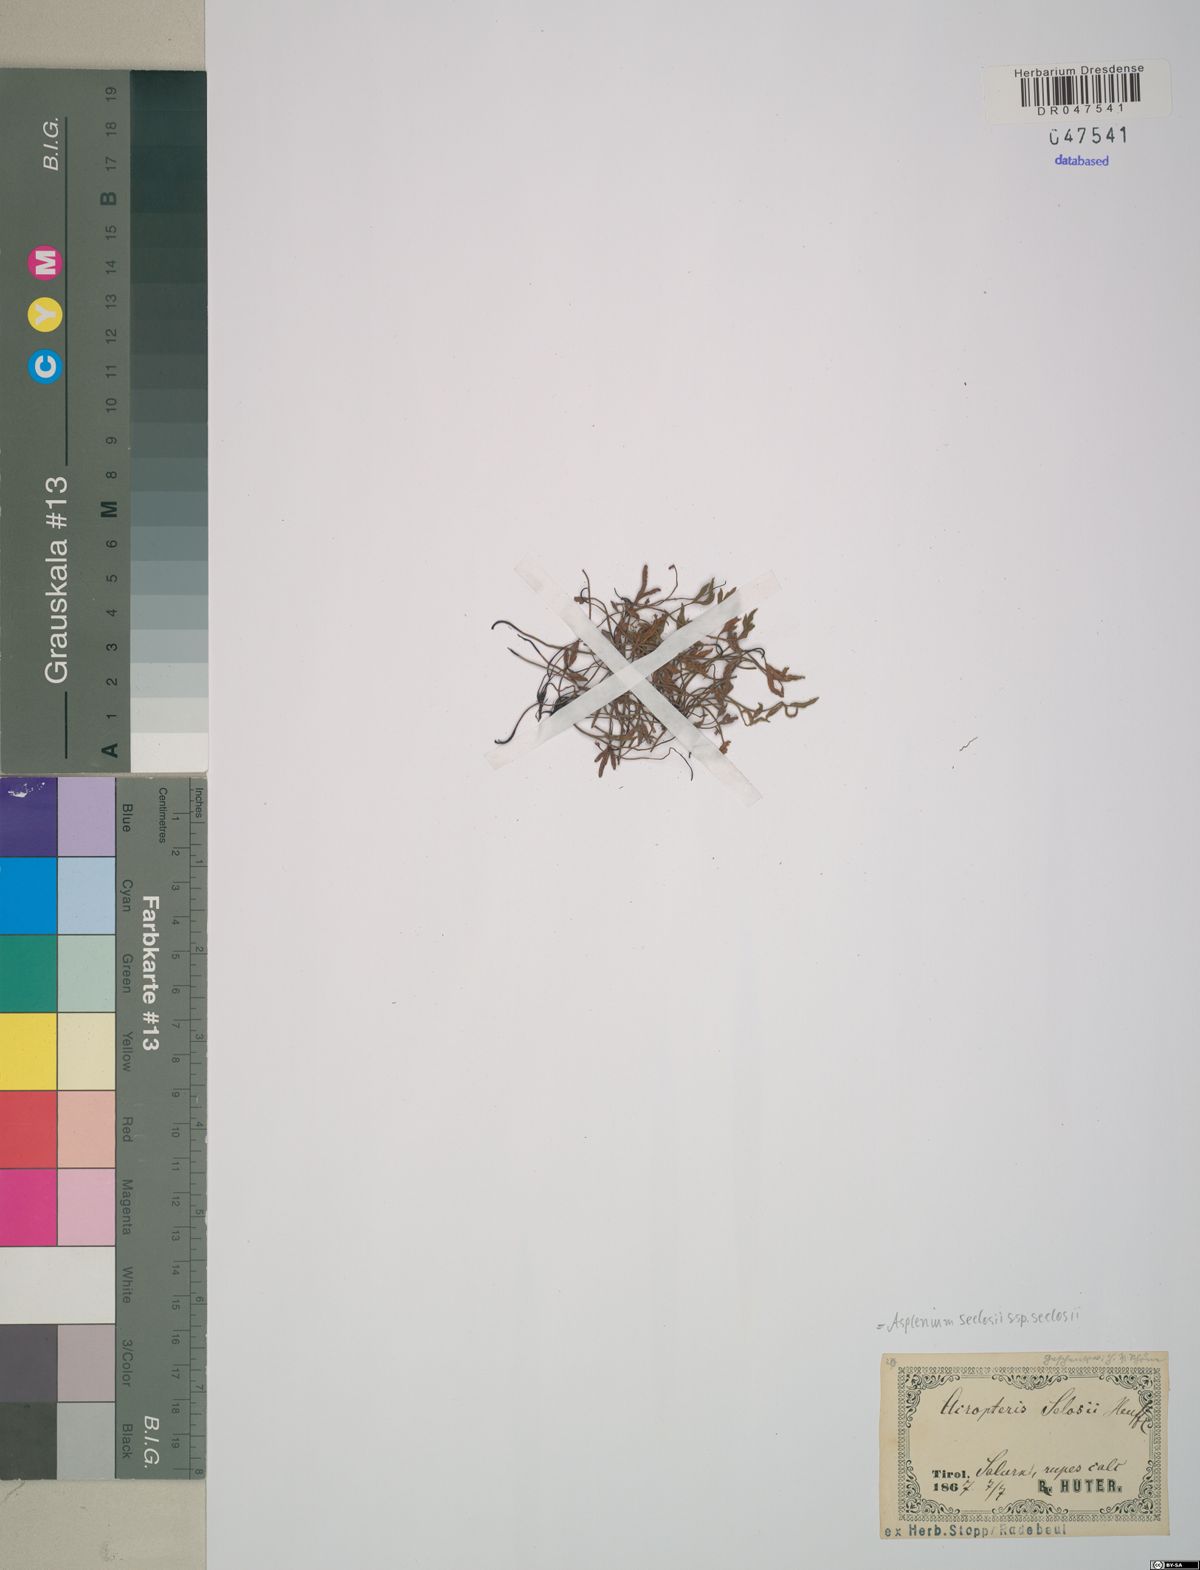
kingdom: Plantae
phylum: Tracheophyta
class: Polypodiopsida
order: Polypodiales
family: Aspleniaceae
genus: Asplenium
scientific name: Asplenium seelosii
